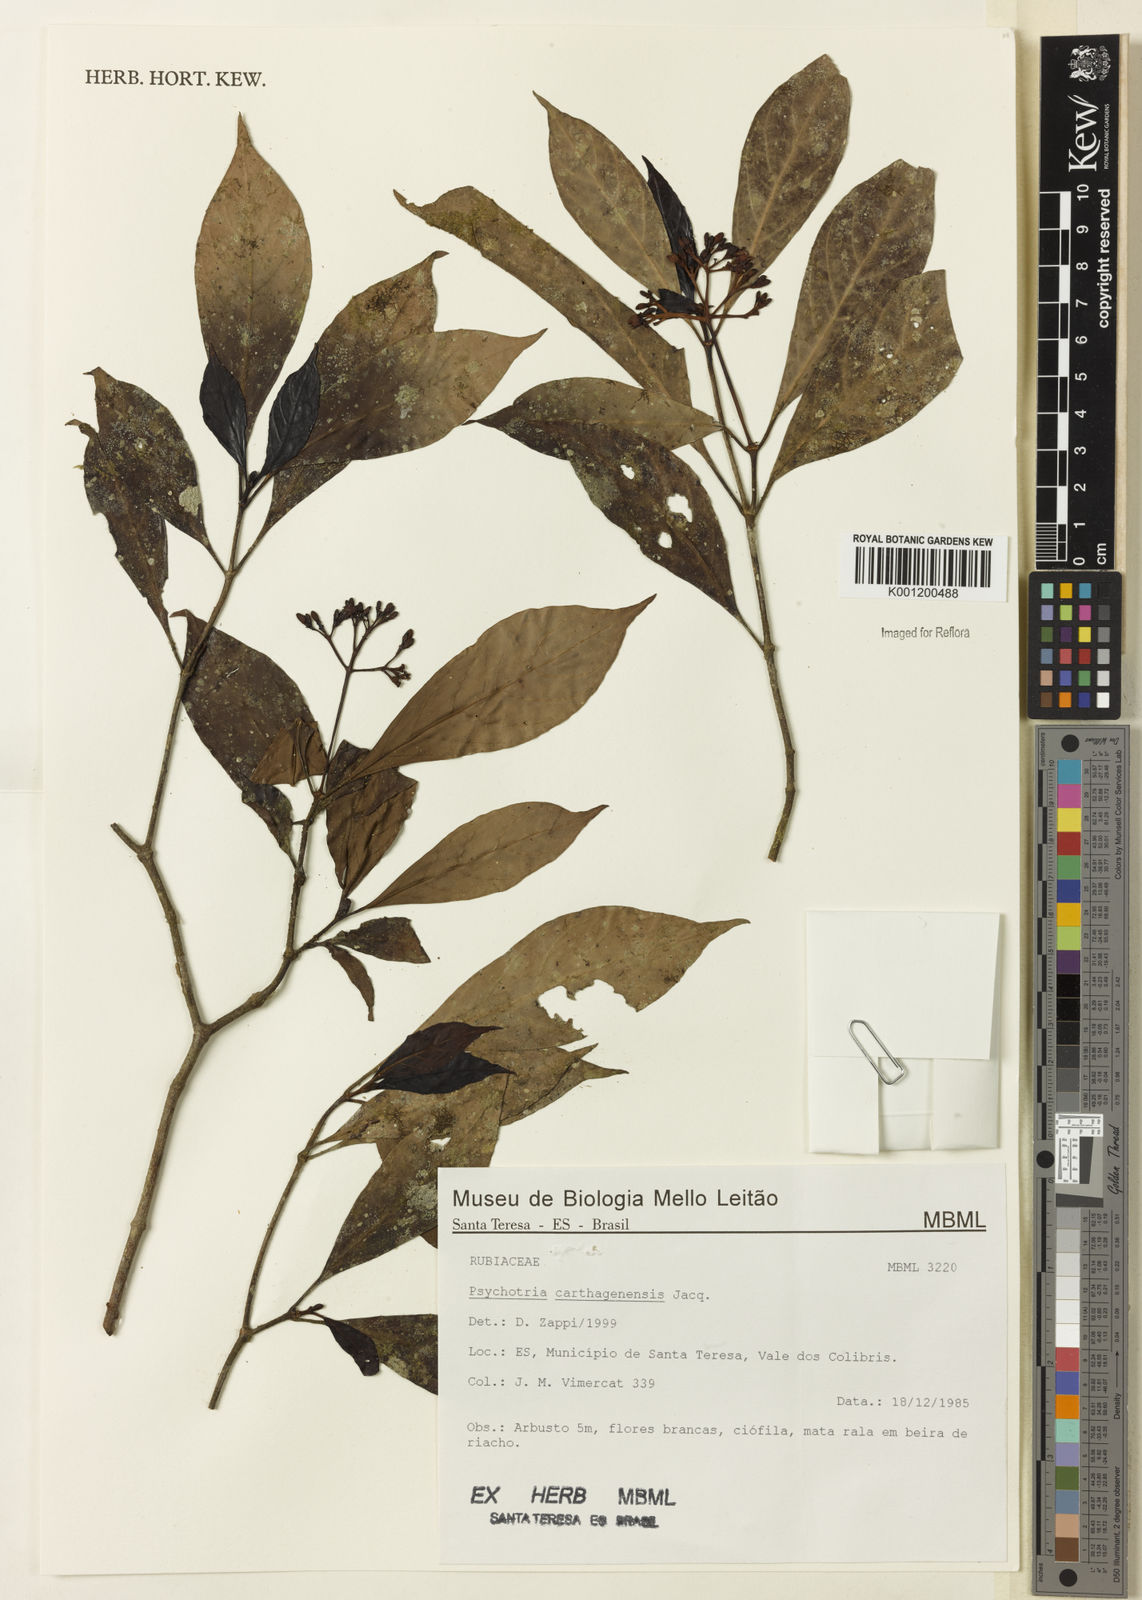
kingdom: Plantae
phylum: Tracheophyta
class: Magnoliopsida
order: Gentianales
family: Rubiaceae
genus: Psychotria
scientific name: Psychotria carthagenensis
